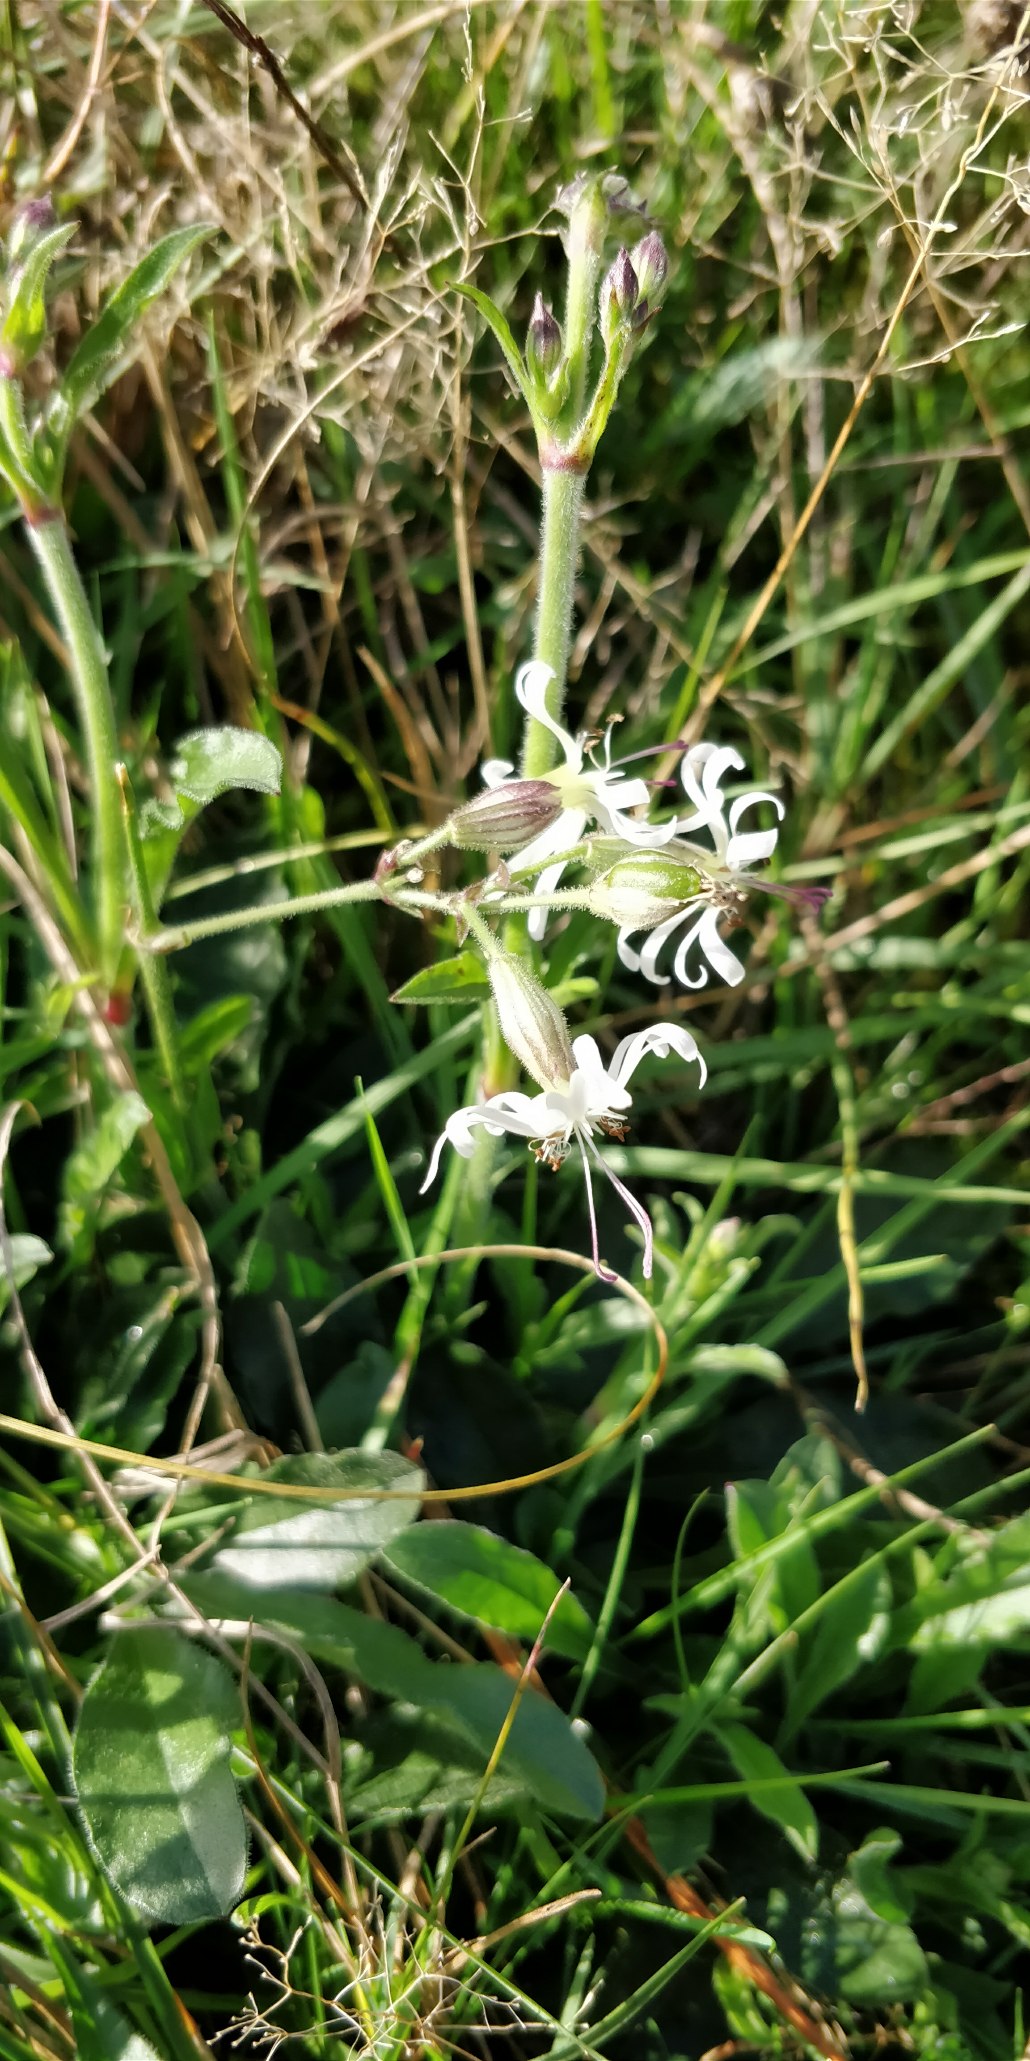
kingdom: Plantae
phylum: Tracheophyta
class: Magnoliopsida
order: Caryophyllales
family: Caryophyllaceae
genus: Silene
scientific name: Silene nutans
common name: Nikkende limurt
